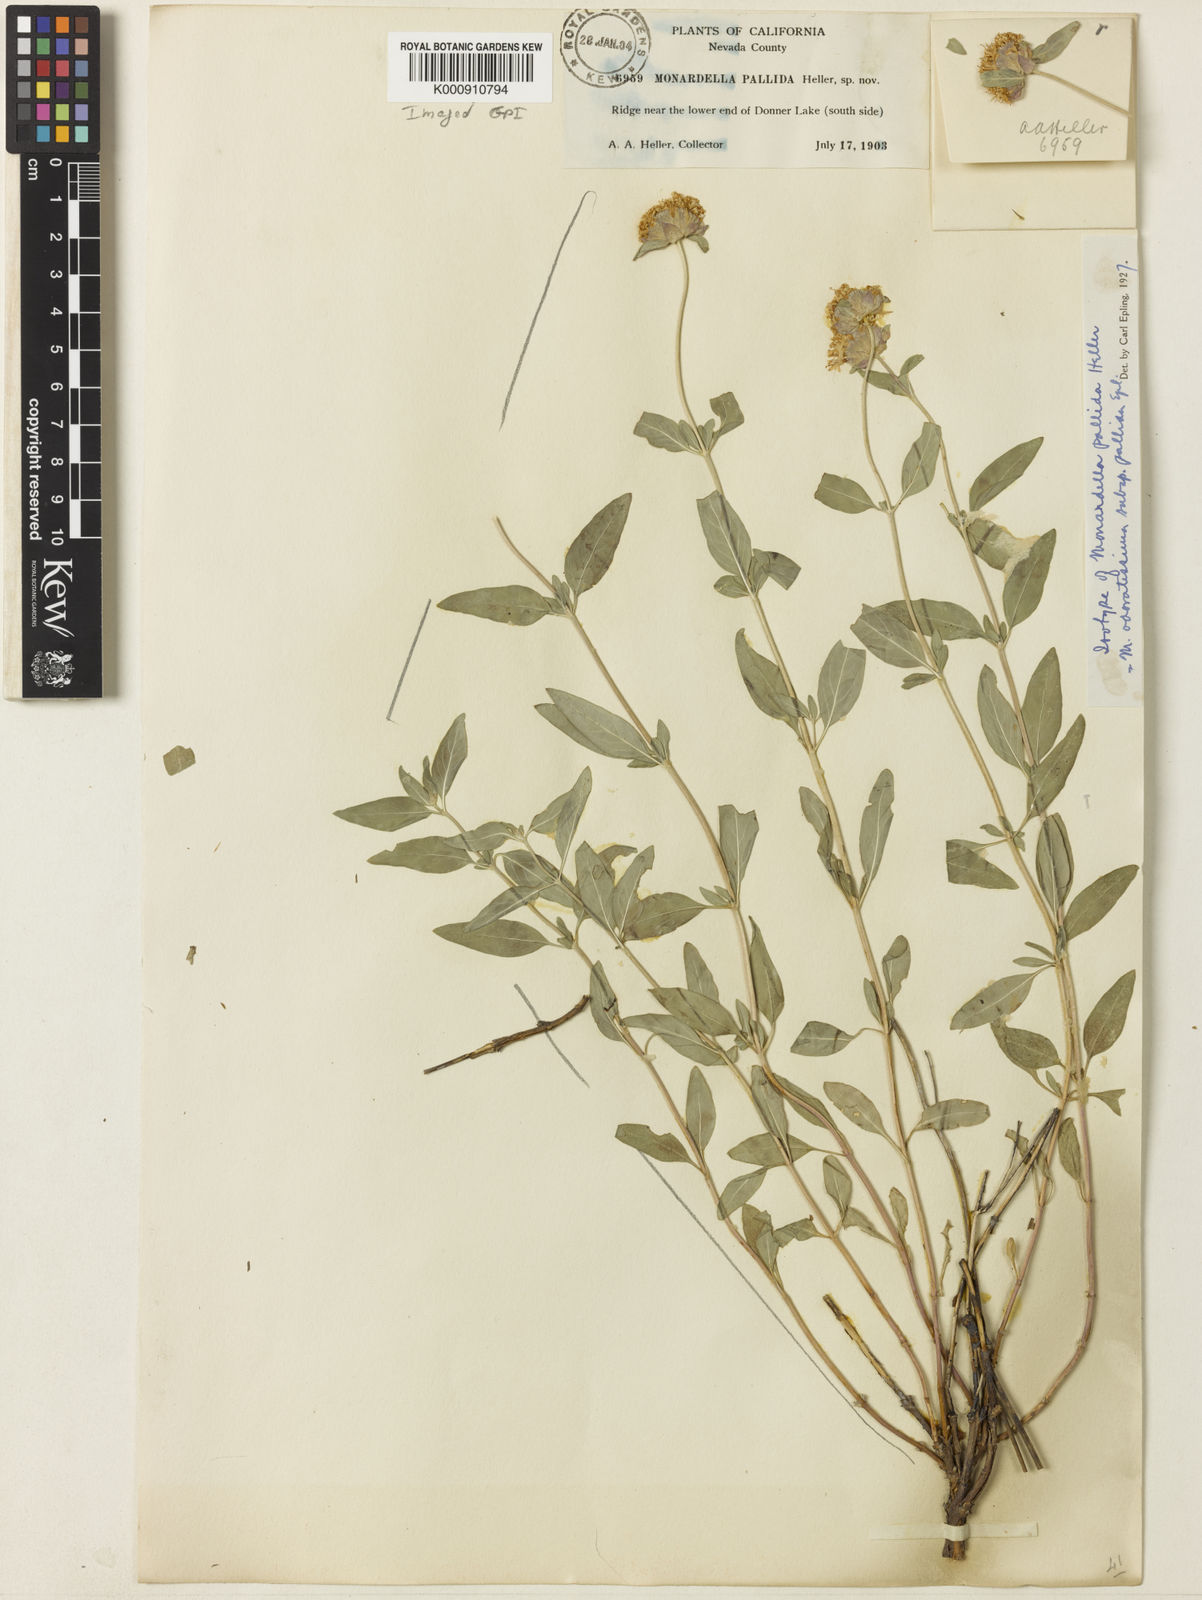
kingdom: Plantae
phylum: Tracheophyta
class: Magnoliopsida
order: Lamiales
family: Lamiaceae
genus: Monardella
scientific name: Monardella odoratissima
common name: Pacific monardella
